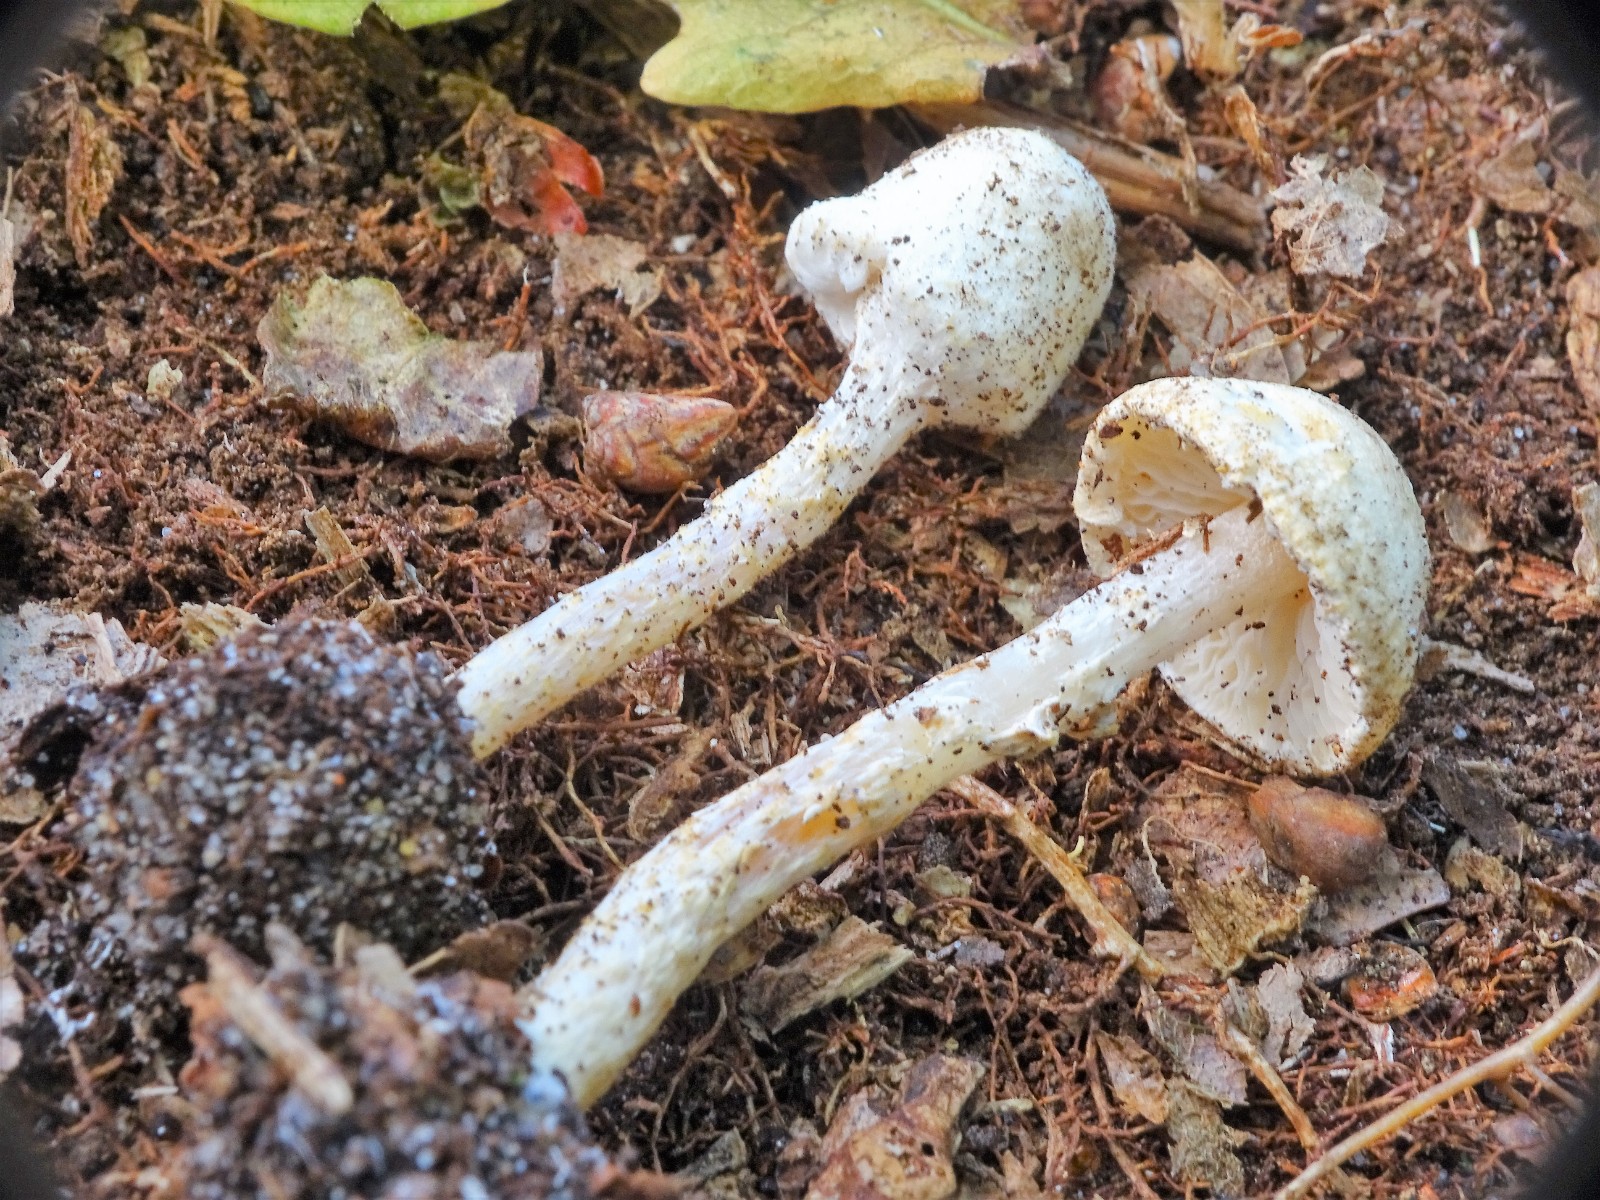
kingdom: Fungi
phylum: Basidiomycota
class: Agaricomycetes
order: Agaricales
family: Agaricaceae
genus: Lepiota
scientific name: Lepiota subalba
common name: hvidlig parasolhat
